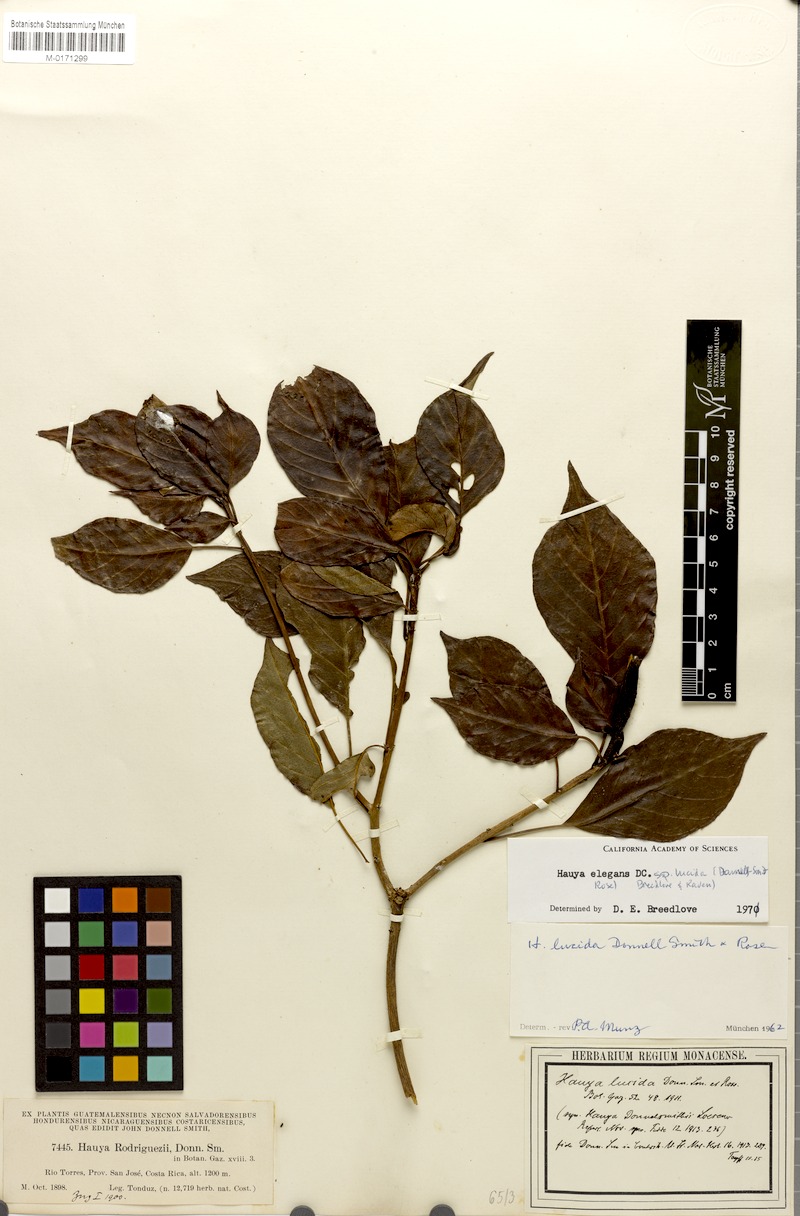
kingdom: Plantae
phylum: Tracheophyta
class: Magnoliopsida
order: Myrtales
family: Onagraceae
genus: Hauya
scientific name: Hauya elegans
